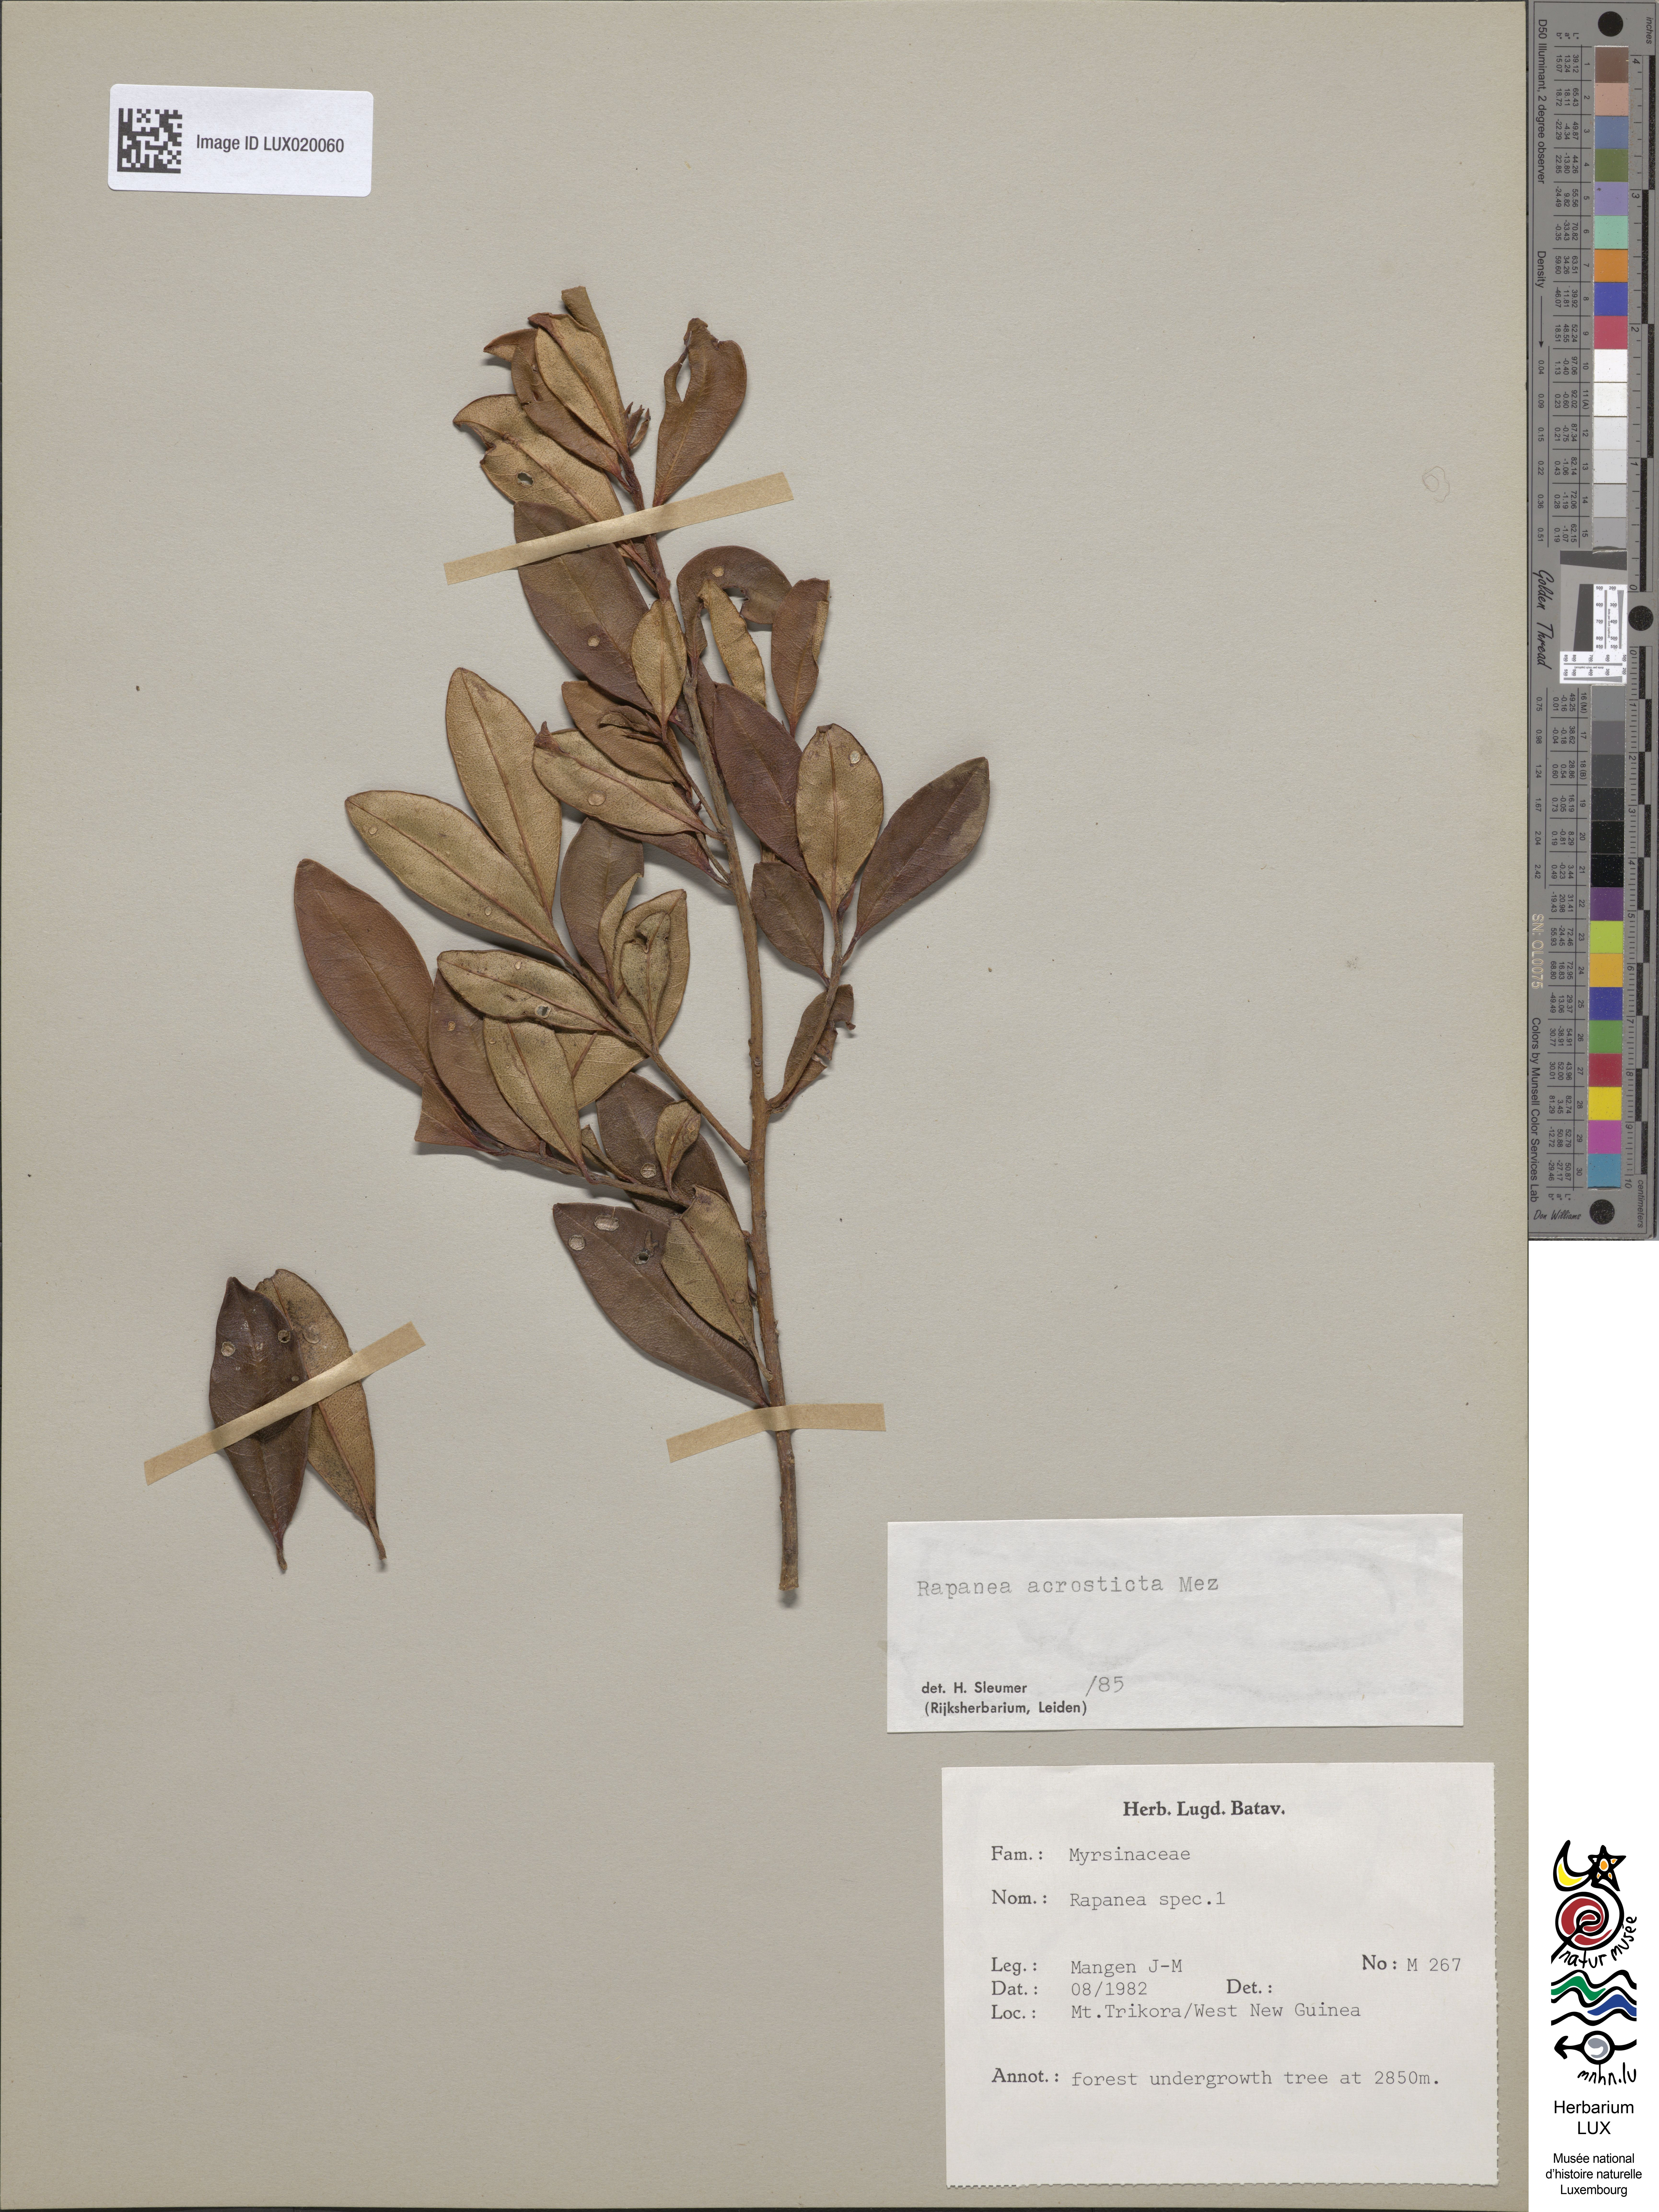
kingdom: Plantae
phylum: Tracheophyta
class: Magnoliopsida
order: Ericales
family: Primulaceae
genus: Myrsine
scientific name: Myrsine acrosticta
